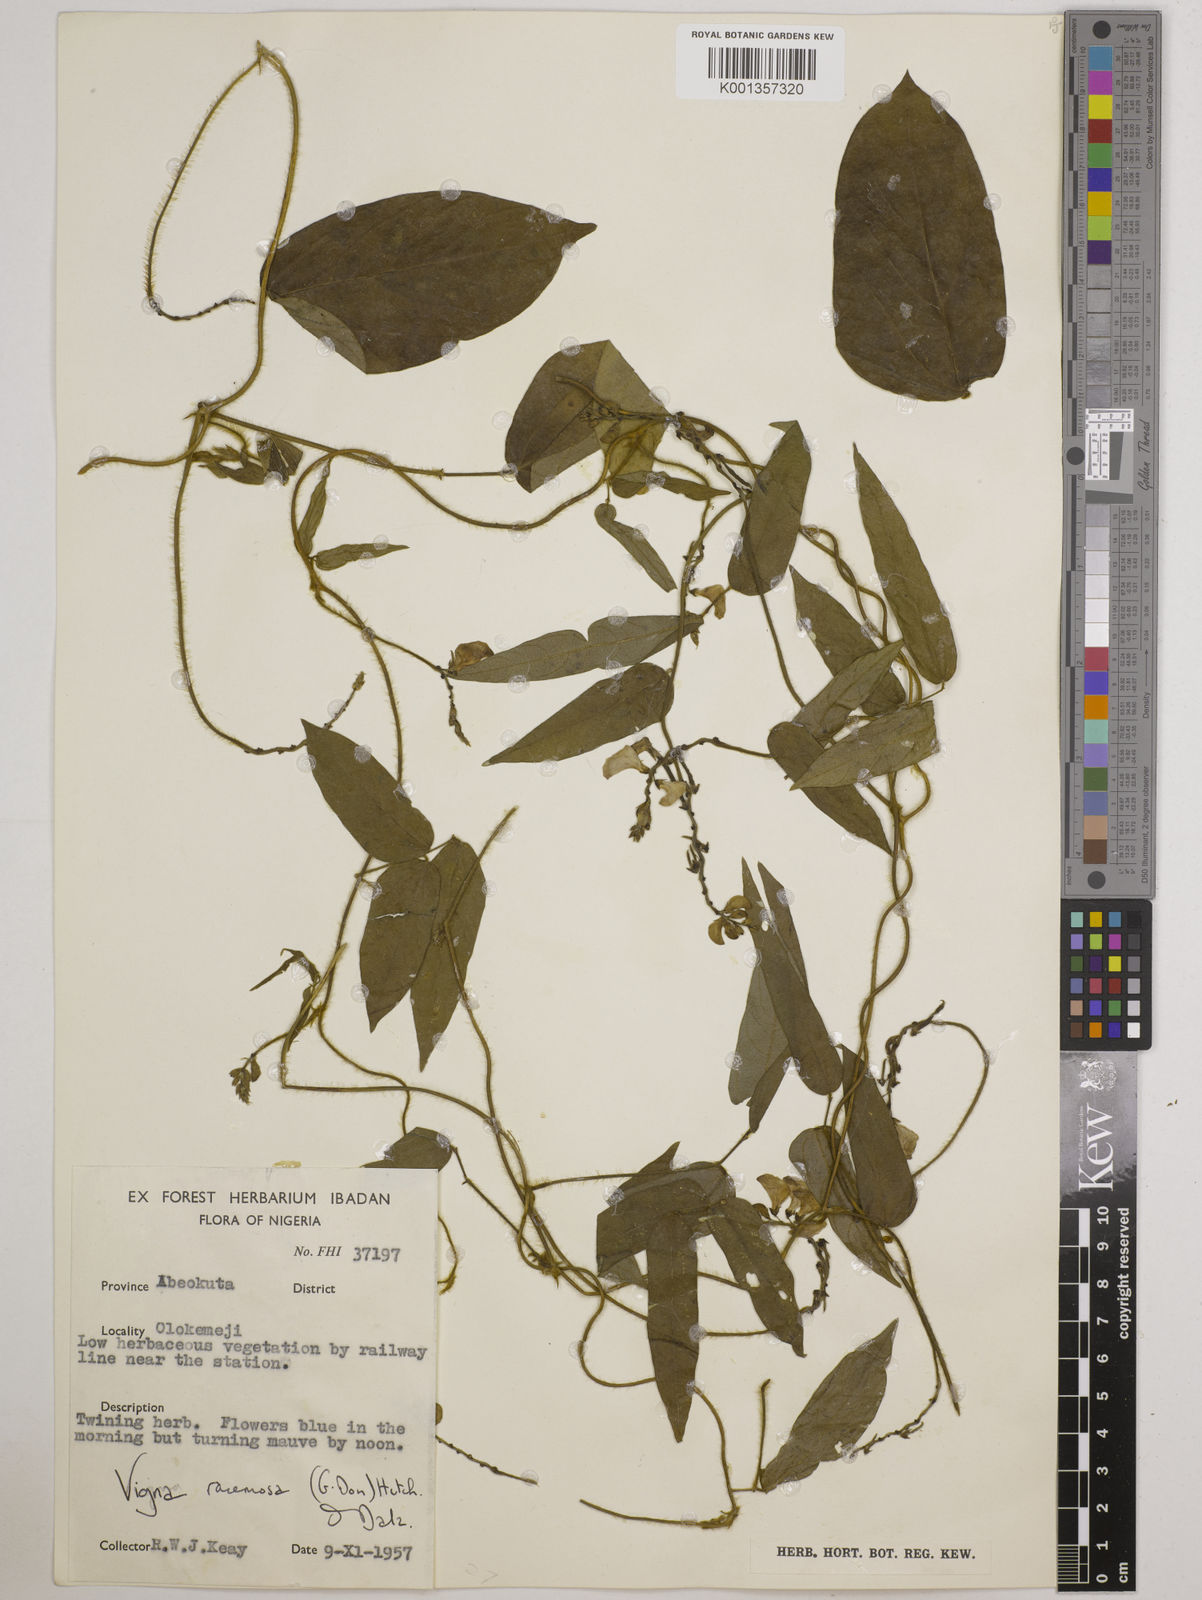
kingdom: Plantae
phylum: Tracheophyta
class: Magnoliopsida
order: Fabales
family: Fabaceae
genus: Vigna
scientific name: Vigna racemosa
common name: Beans not eaten
